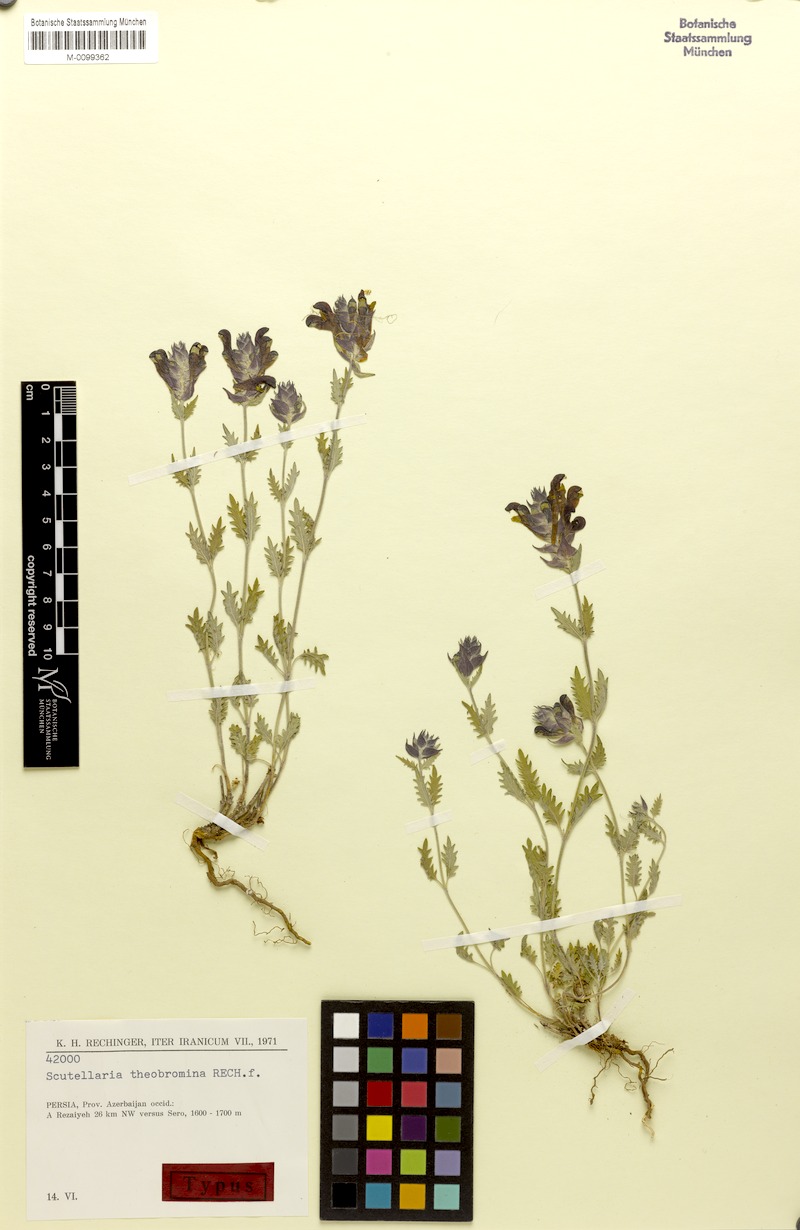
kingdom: Plantae
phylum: Tracheophyta
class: Magnoliopsida
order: Lamiales
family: Lamiaceae
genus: Scutellaria
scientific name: Scutellaria theobromina
